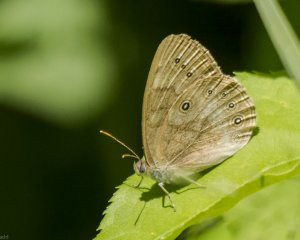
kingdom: Animalia
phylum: Arthropoda
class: Insecta
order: Lepidoptera
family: Nymphalidae
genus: Lethe
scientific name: Lethe eurydice
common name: Eyed Brown
